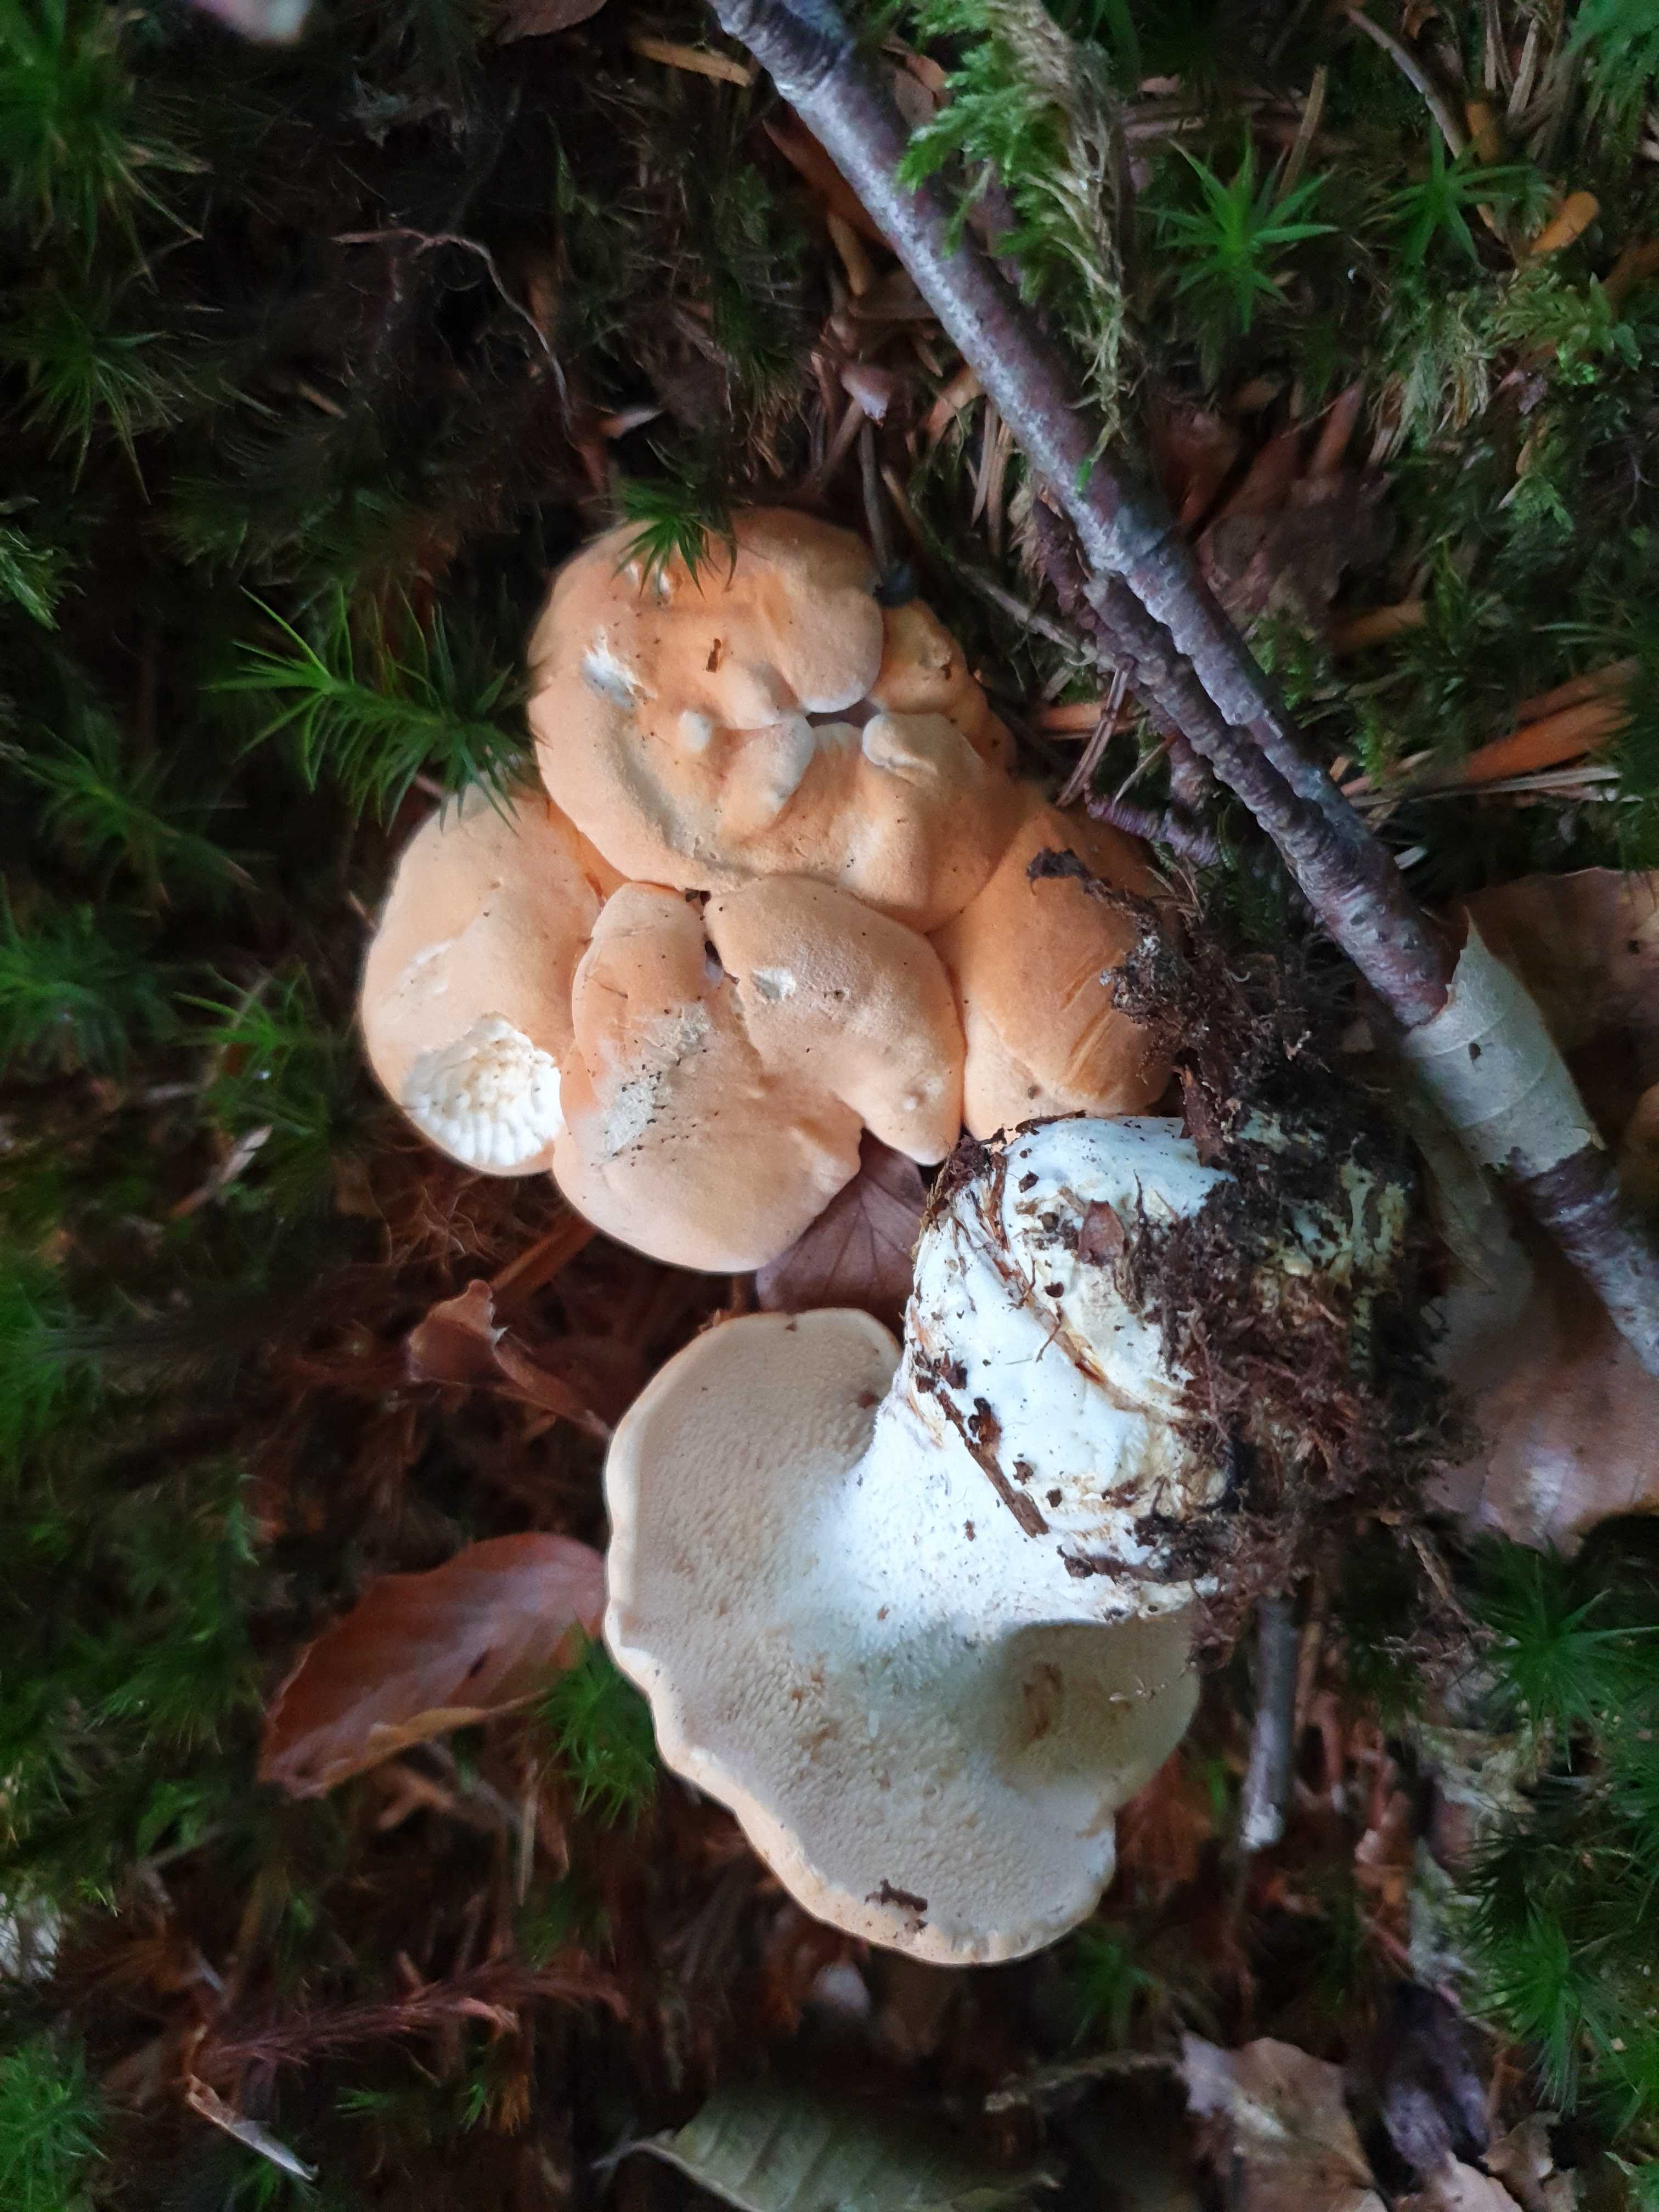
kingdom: Fungi
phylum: Basidiomycota
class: Agaricomycetes
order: Cantharellales
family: Hydnaceae
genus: Hydnum
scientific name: Hydnum
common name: pigsvamp
